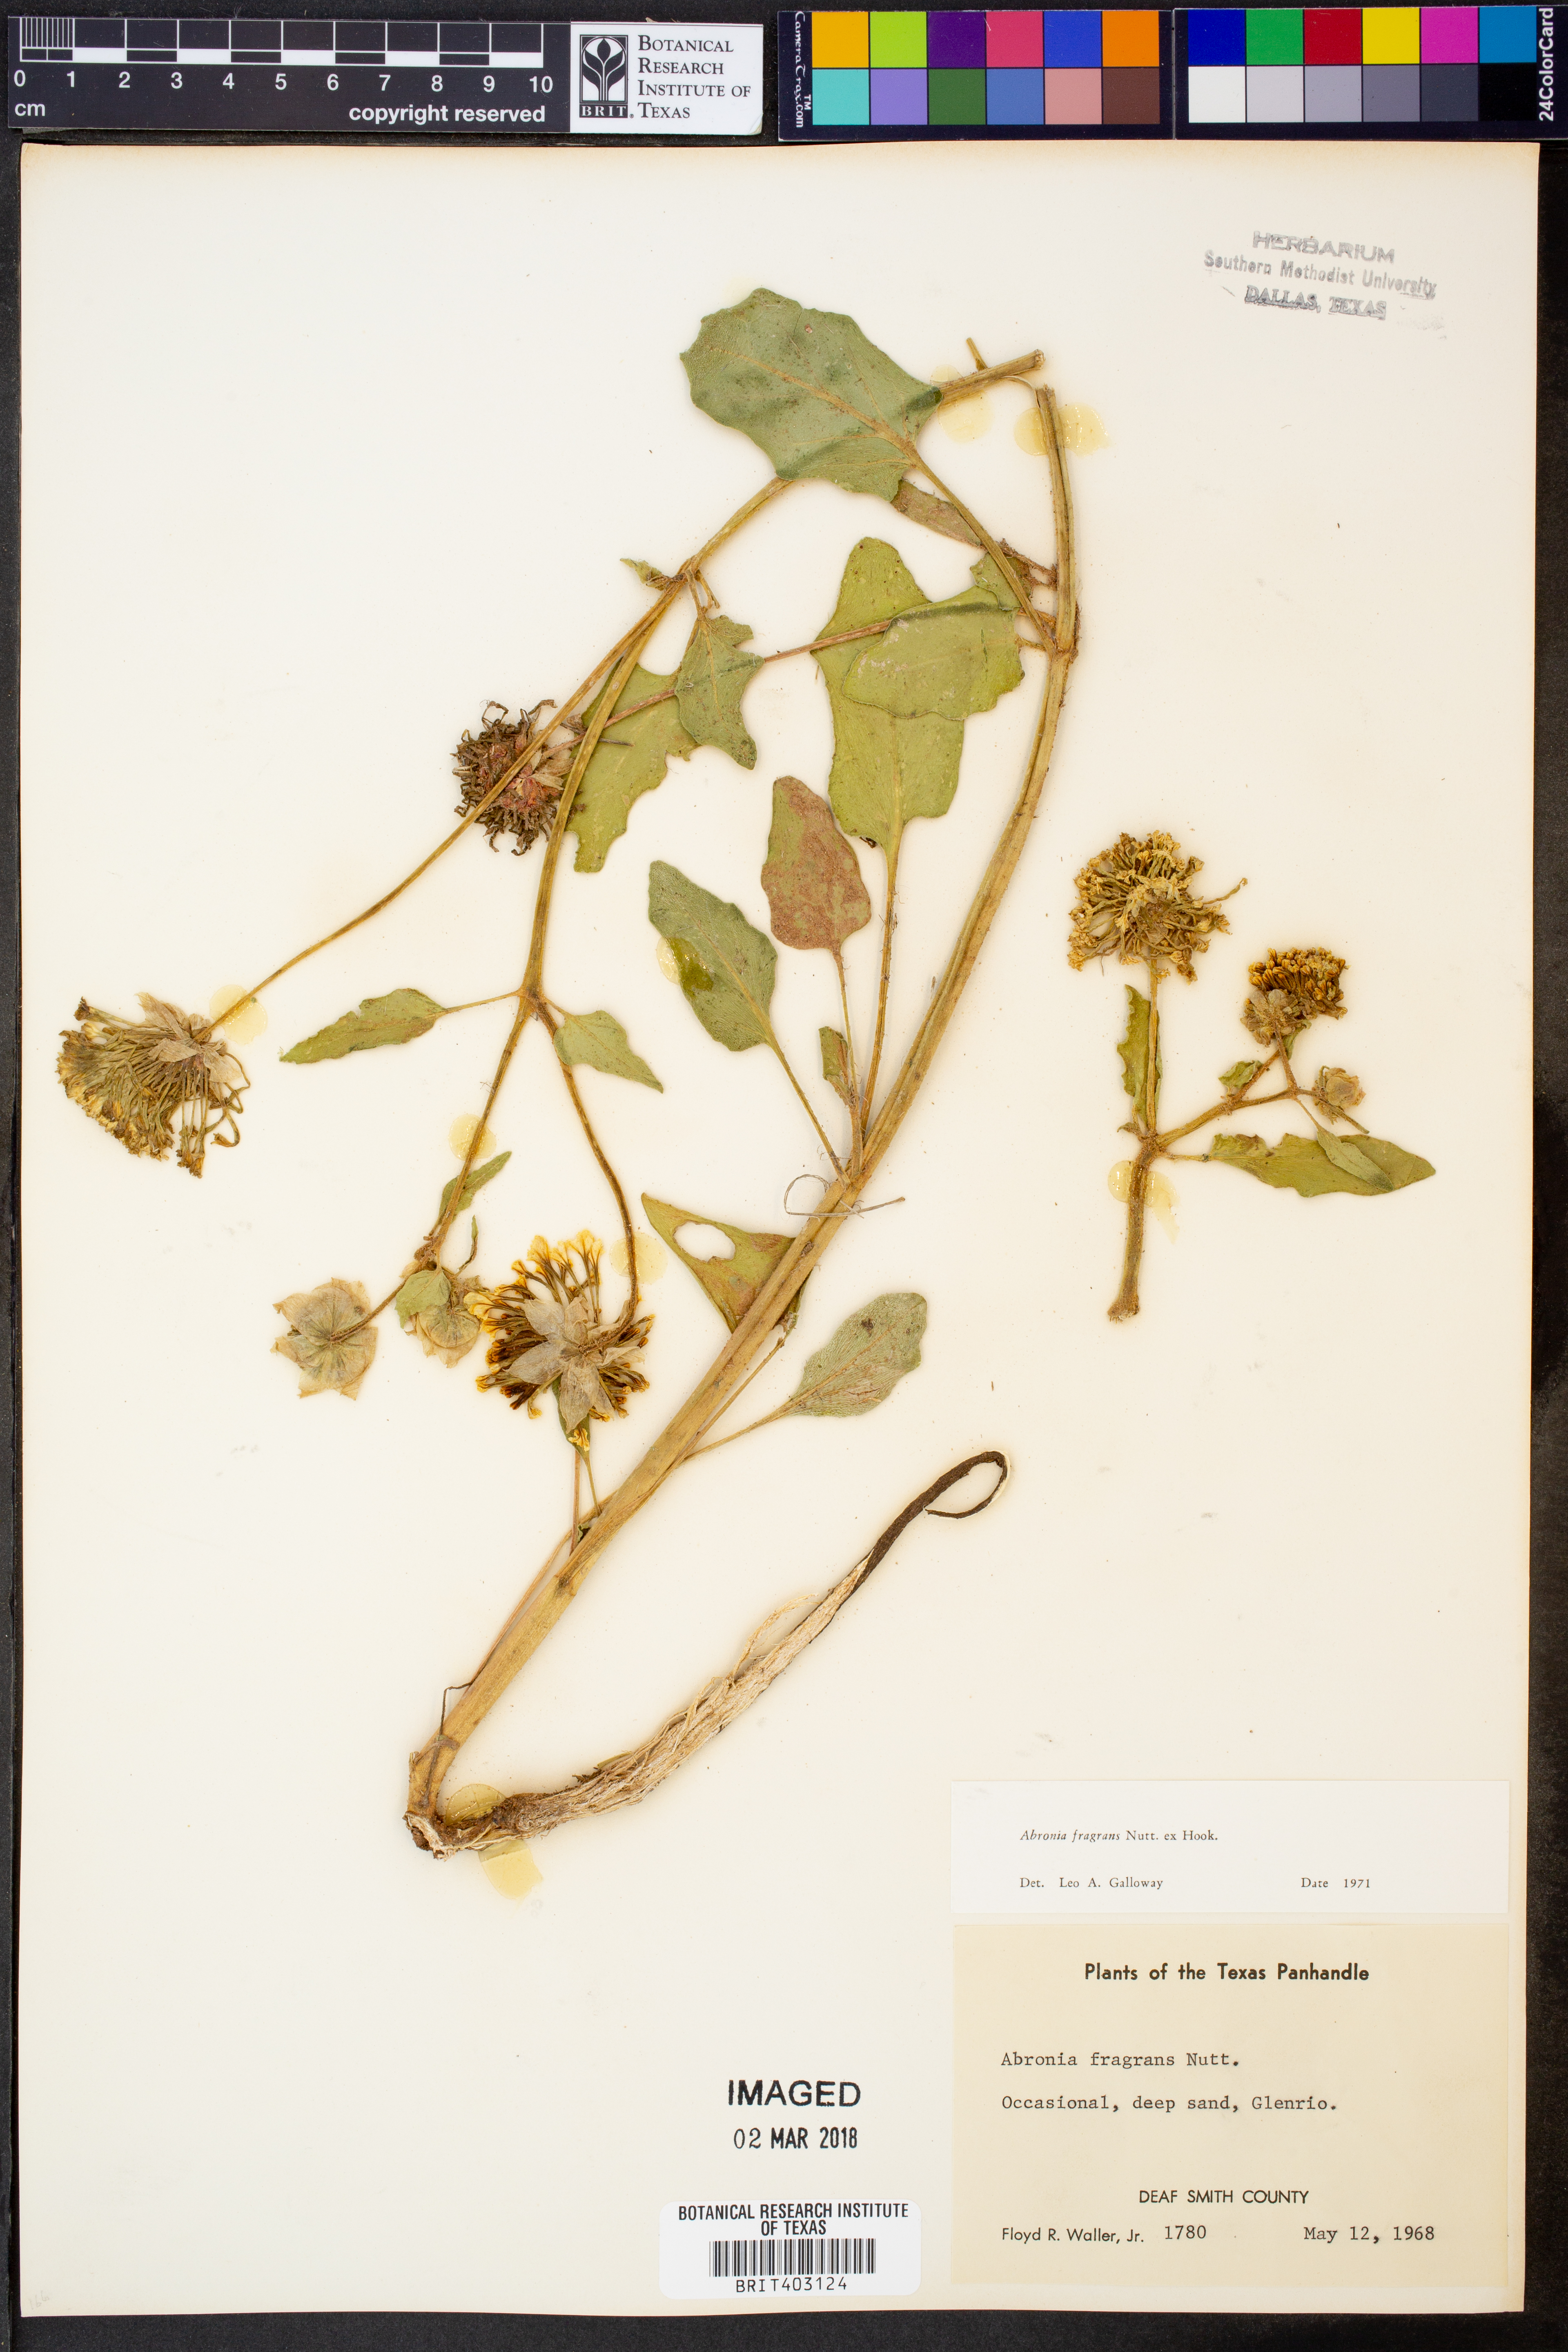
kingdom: Plantae
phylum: Tracheophyta
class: Magnoliopsida
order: Caryophyllales
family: Nyctaginaceae
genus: Abronia
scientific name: Abronia fragrans
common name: Fragrant sand-verbena
